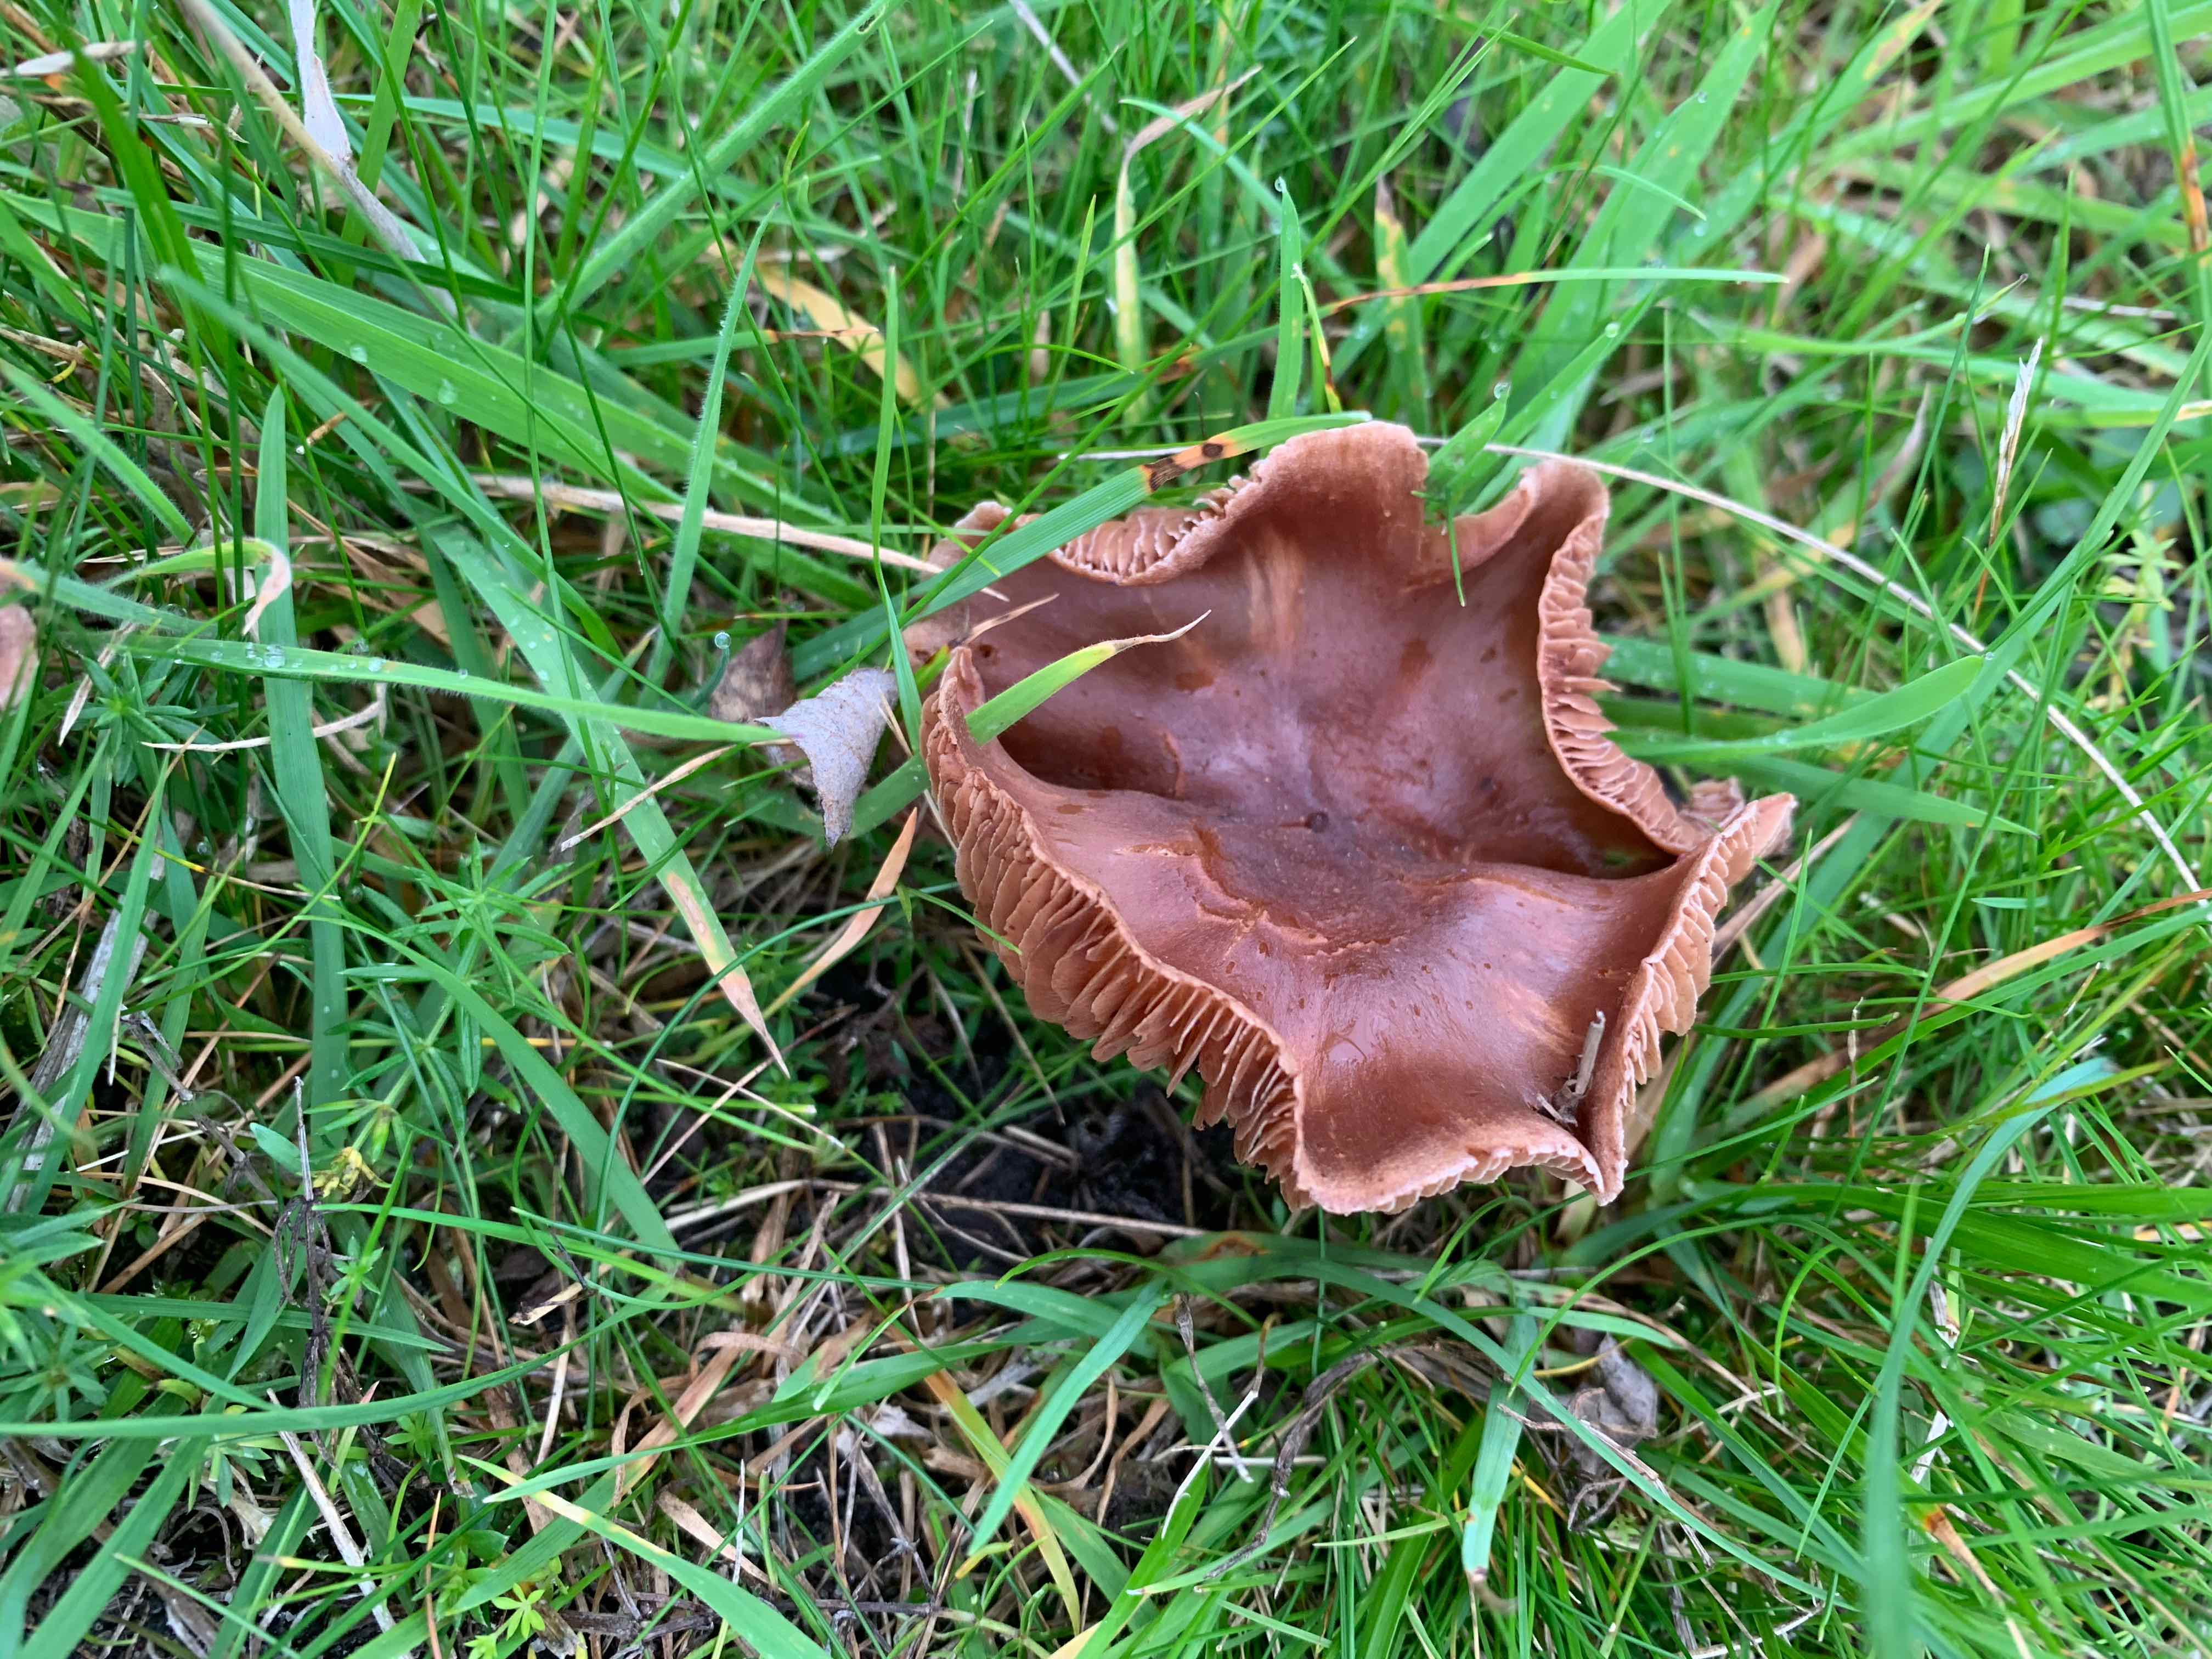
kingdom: Fungi
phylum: Basidiomycota
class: Agaricomycetes
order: Agaricales
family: Cortinariaceae
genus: Cortinarius
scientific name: Cortinarius
